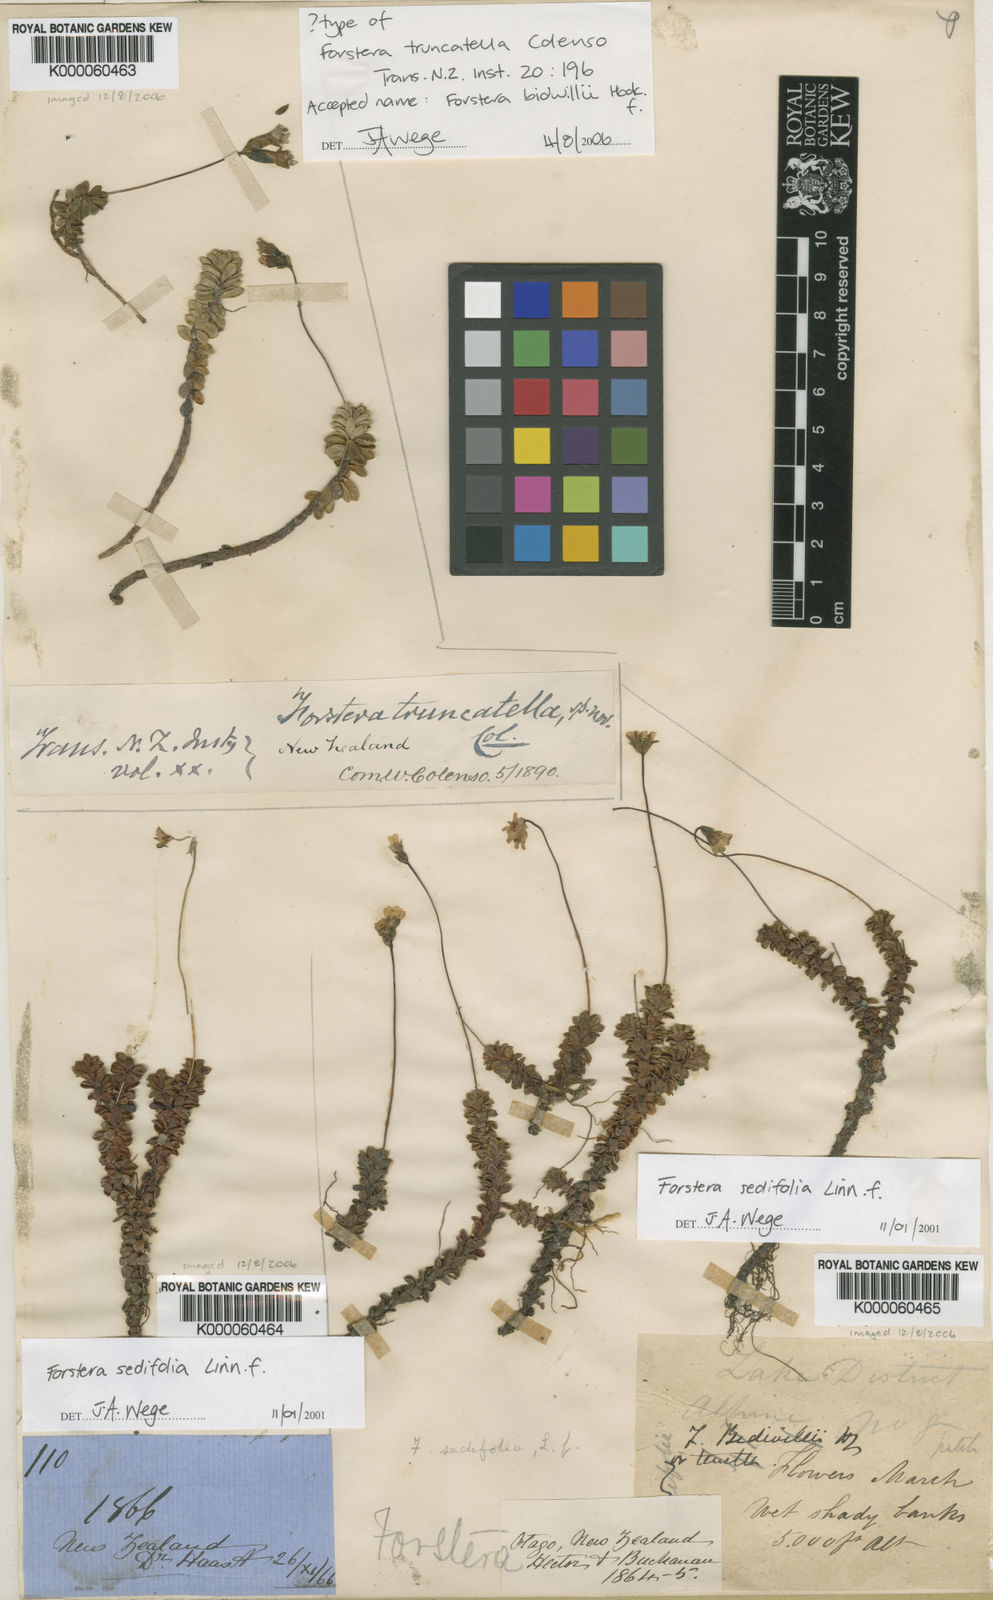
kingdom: Plantae
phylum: Tracheophyta
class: Magnoliopsida
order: Asterales
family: Stylidiaceae
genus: Forstera
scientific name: Forstera tenella
